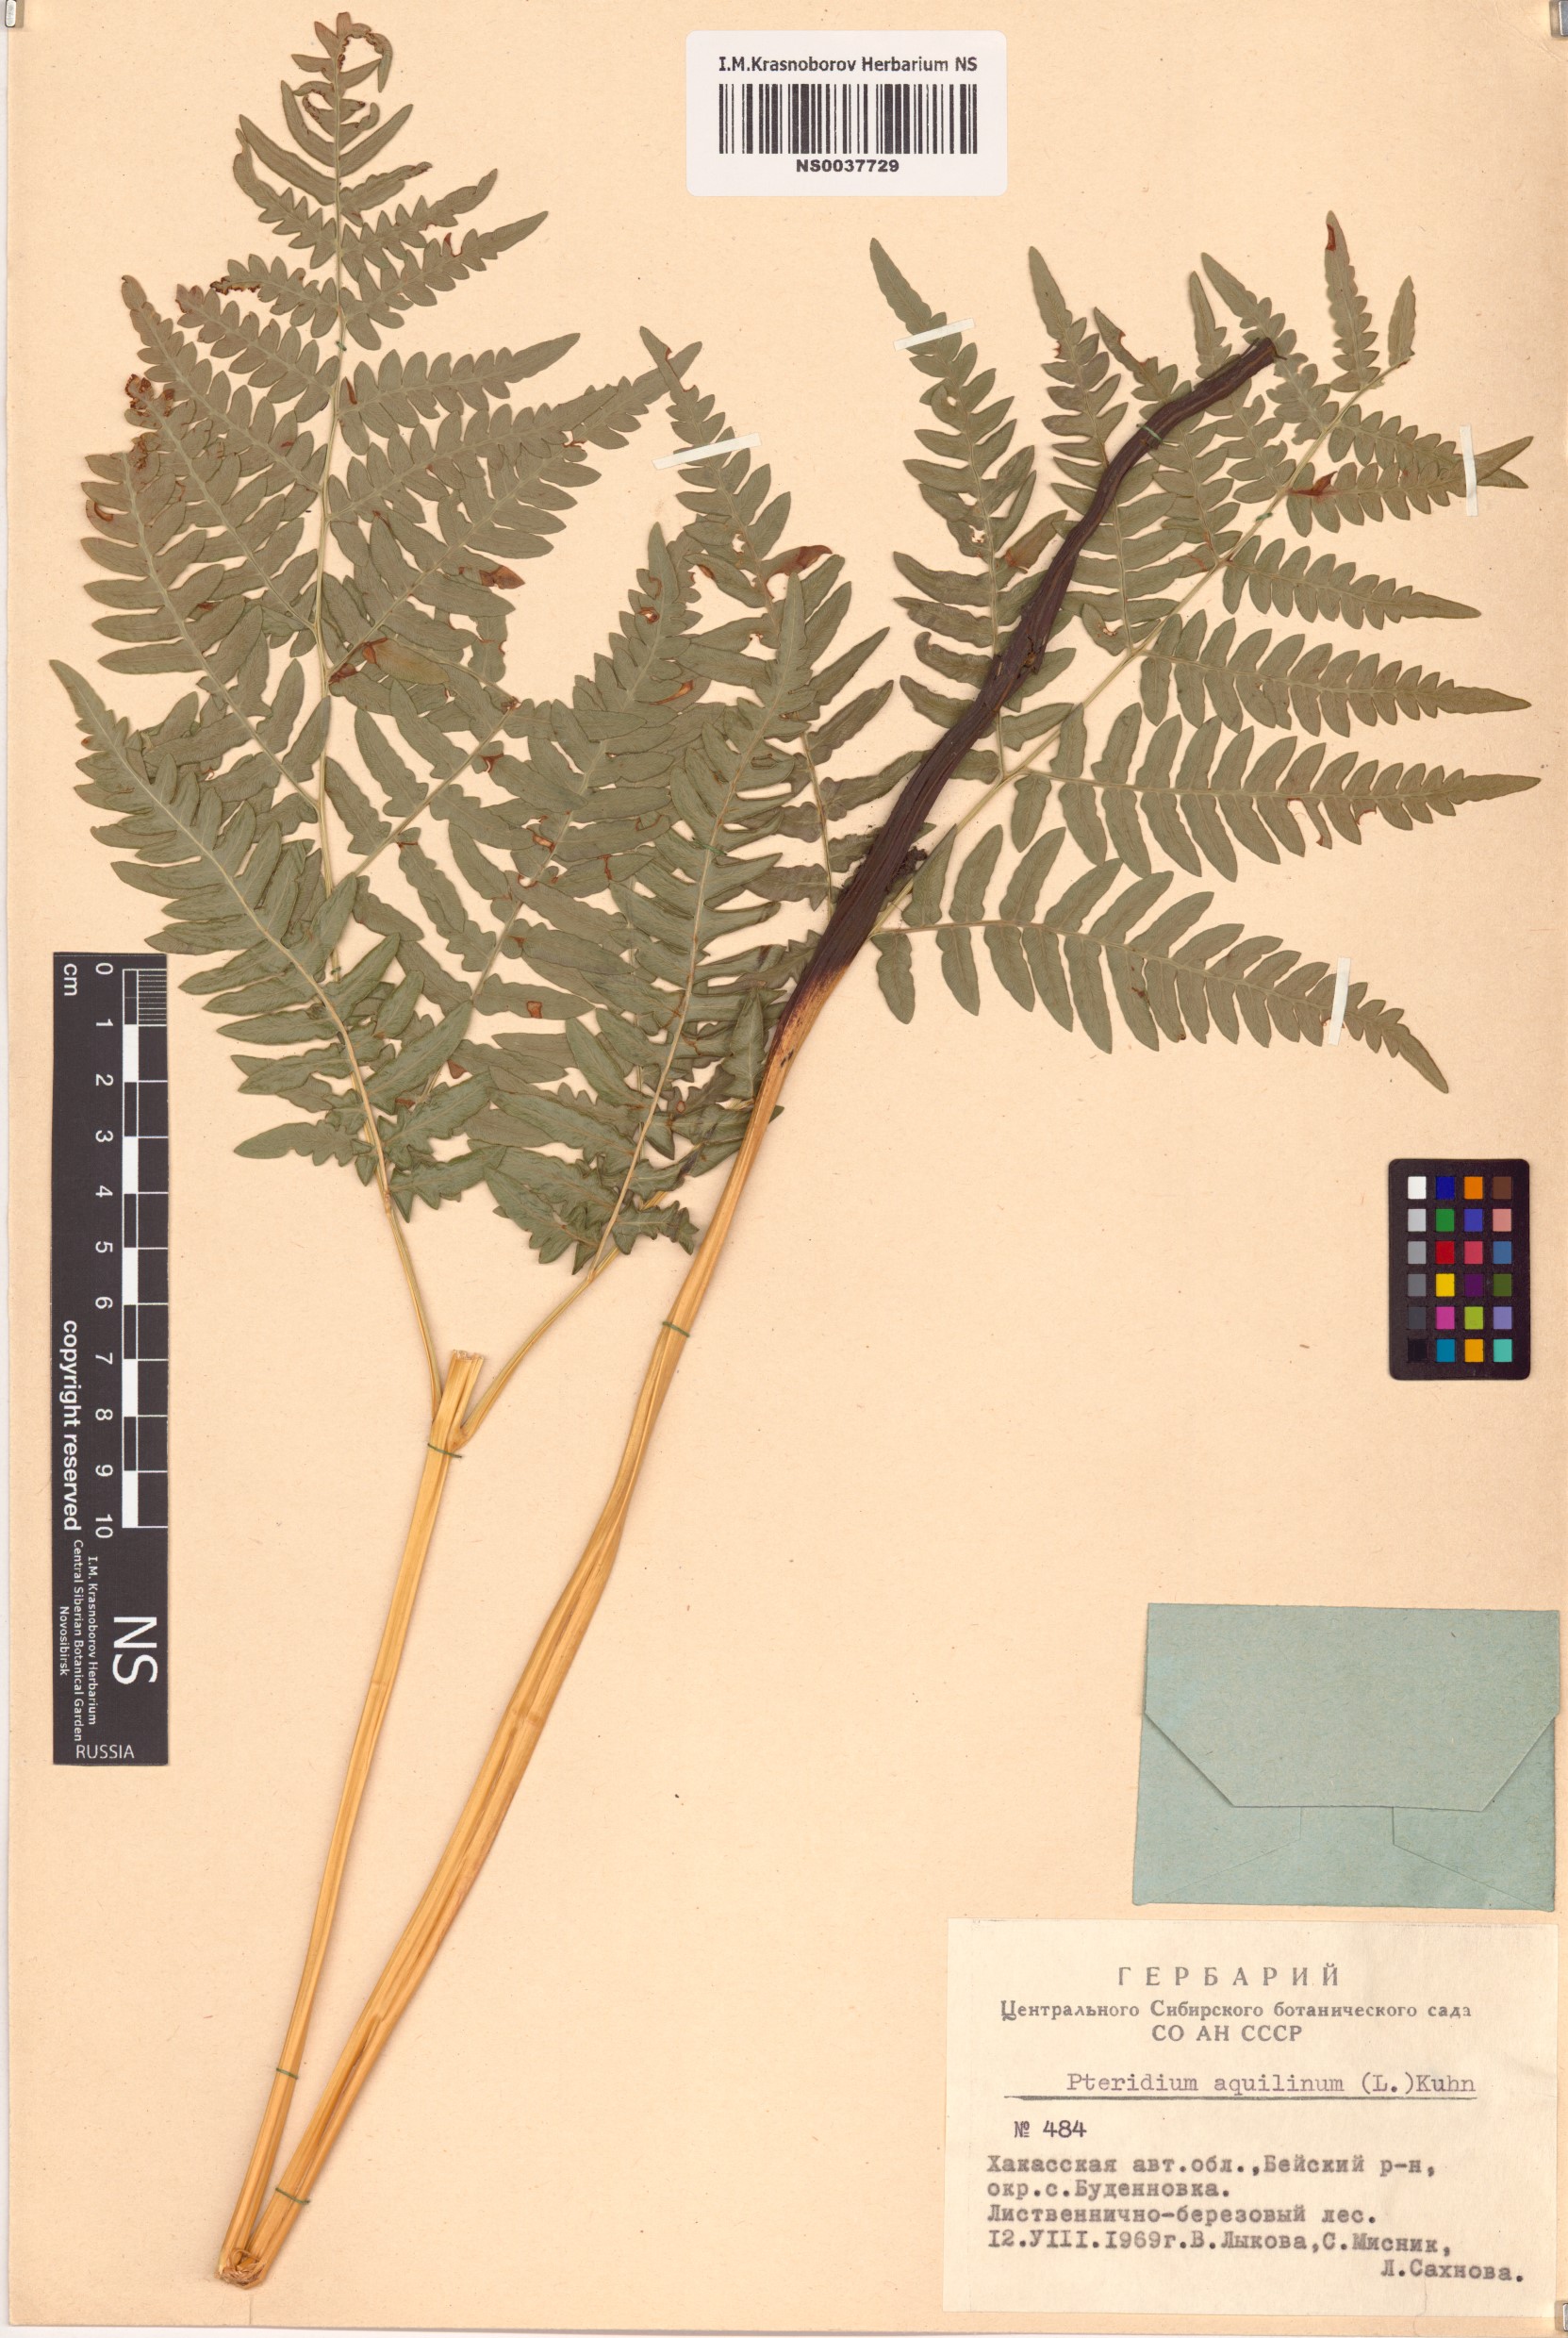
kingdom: Plantae
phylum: Tracheophyta
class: Polypodiopsida
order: Polypodiales
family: Dennstaedtiaceae
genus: Pteridium
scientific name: Pteridium aquilinum
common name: Bracken
